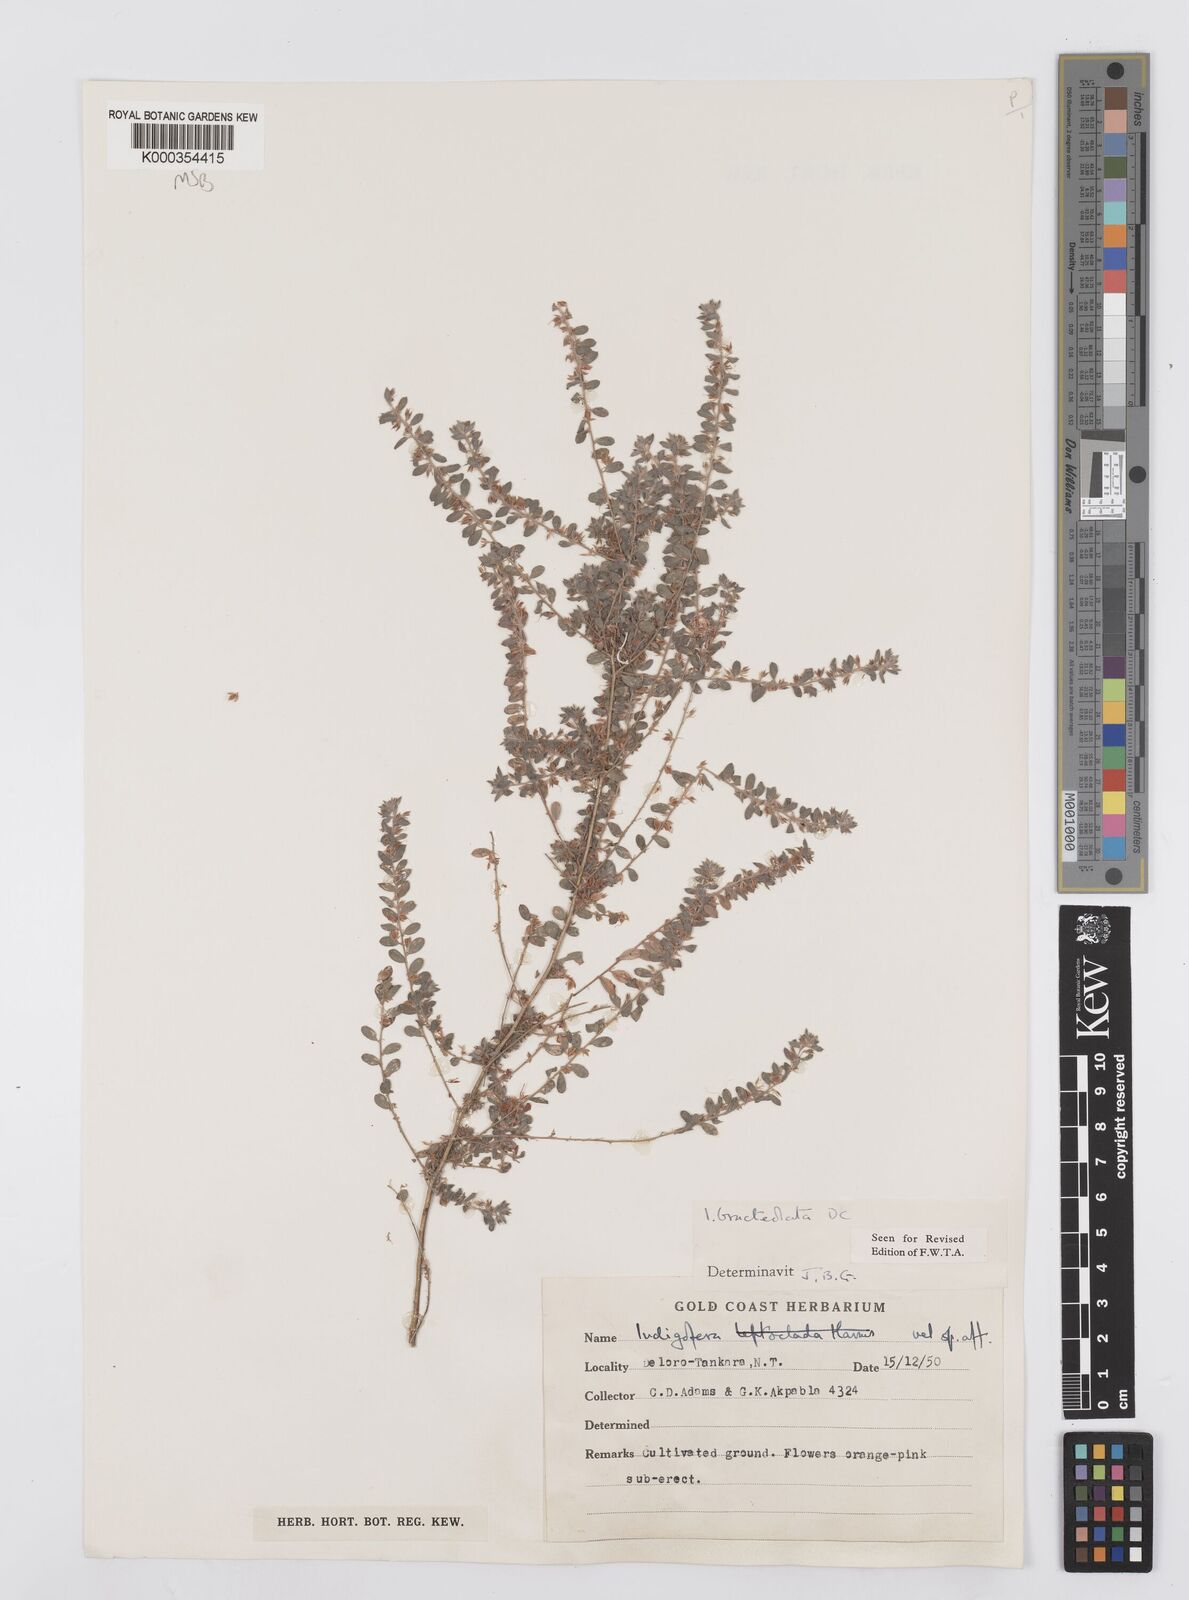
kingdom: Plantae
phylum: Tracheophyta
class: Magnoliopsida
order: Fabales
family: Fabaceae
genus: Indigofera
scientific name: Indigofera bracteolata
